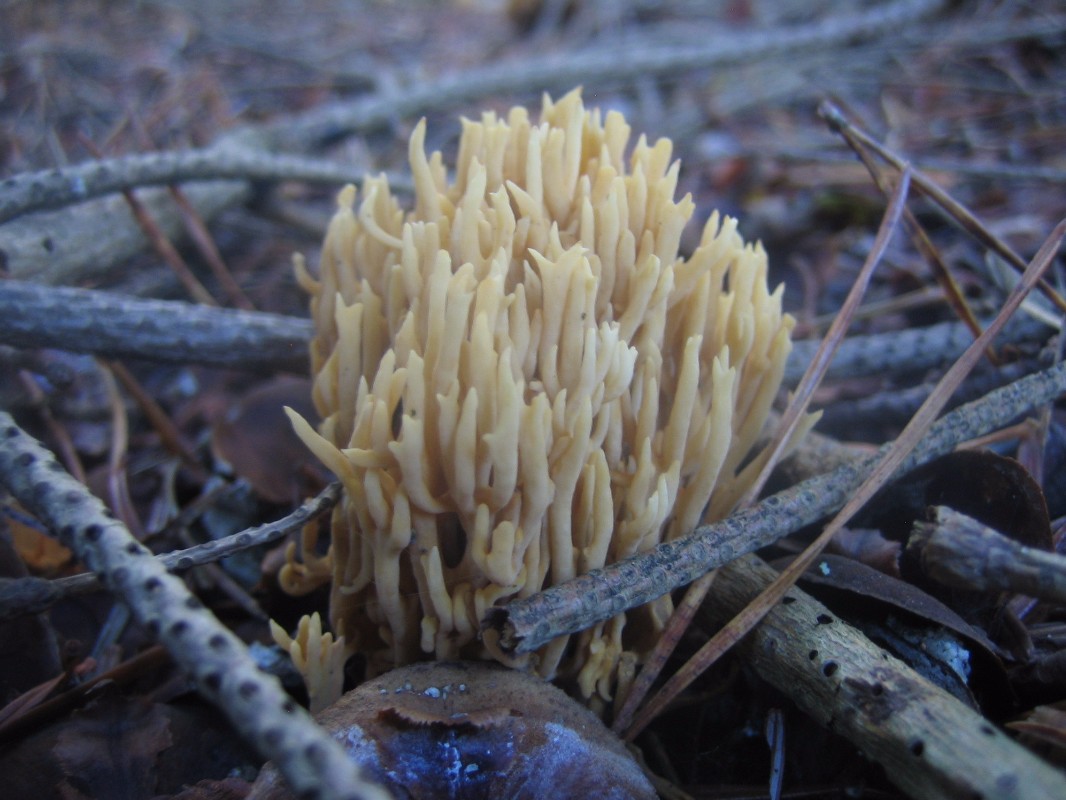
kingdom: Fungi
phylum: Basidiomycota
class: Agaricomycetes
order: Gomphales
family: Gomphaceae
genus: Phaeoclavulina
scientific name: Phaeoclavulina eumorpha
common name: gran-koralsvamp
